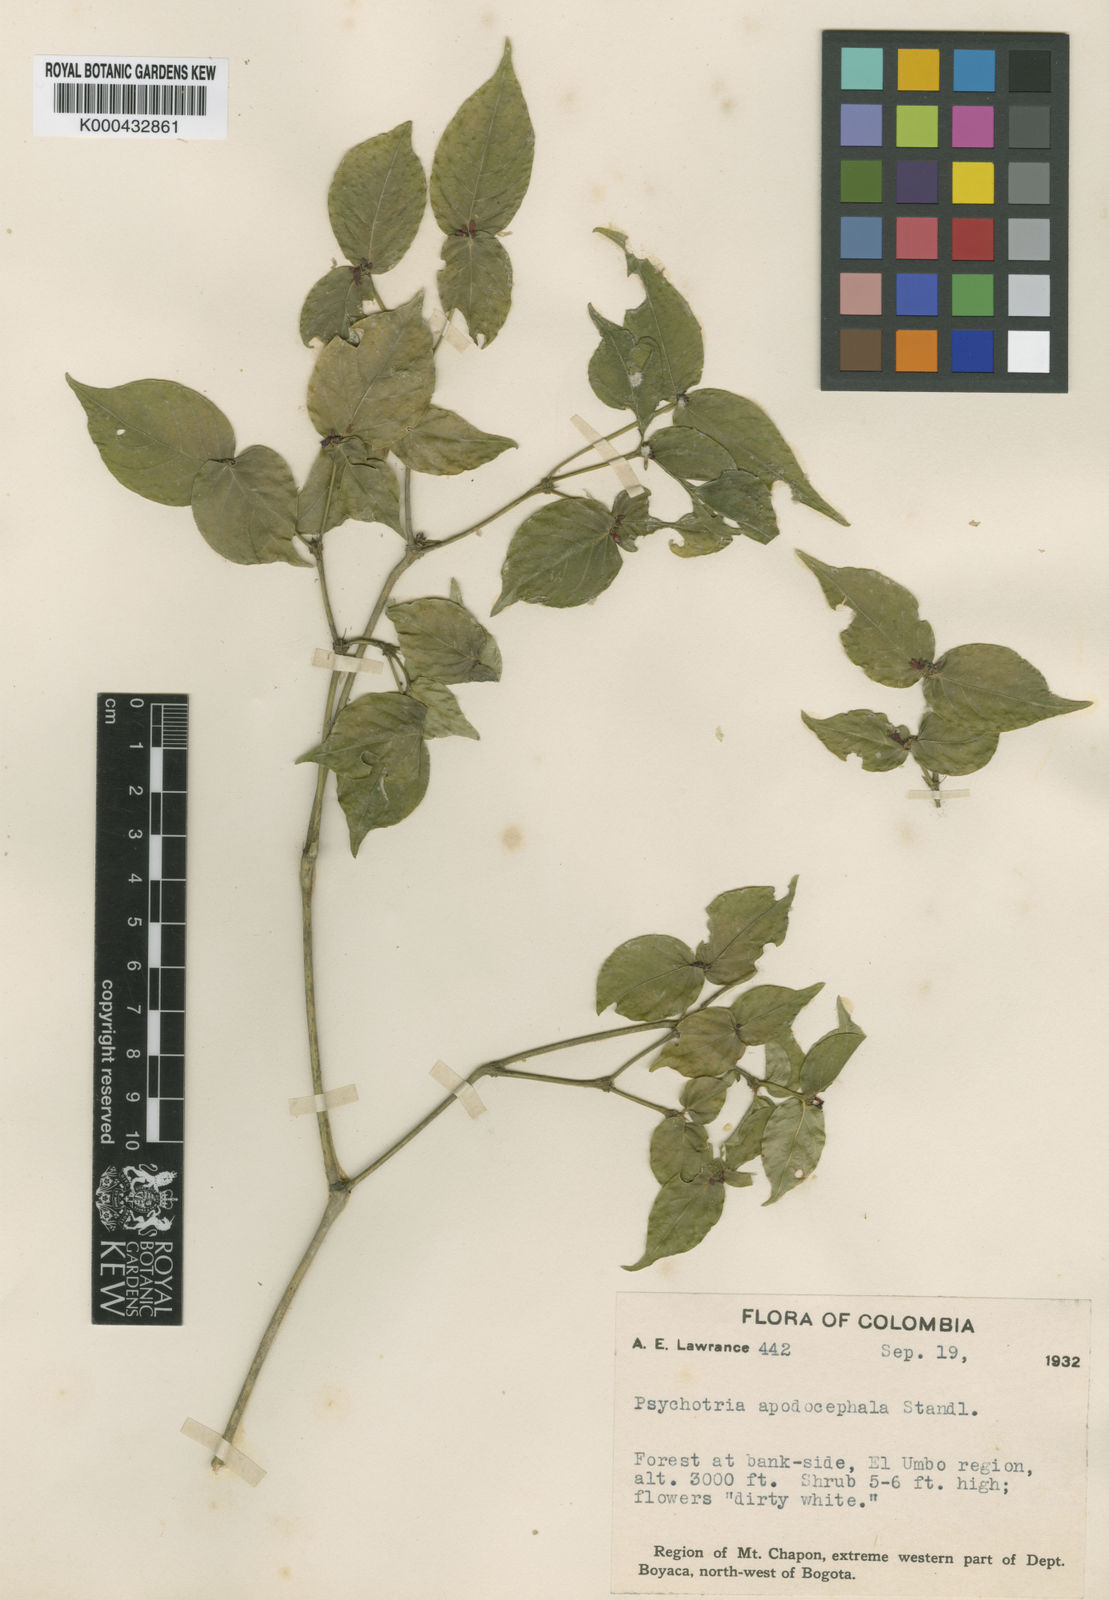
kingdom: Plantae
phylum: Tracheophyta
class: Magnoliopsida
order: Gentianales
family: Rubiaceae
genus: Psychotria
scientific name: Psychotria apodocephala
